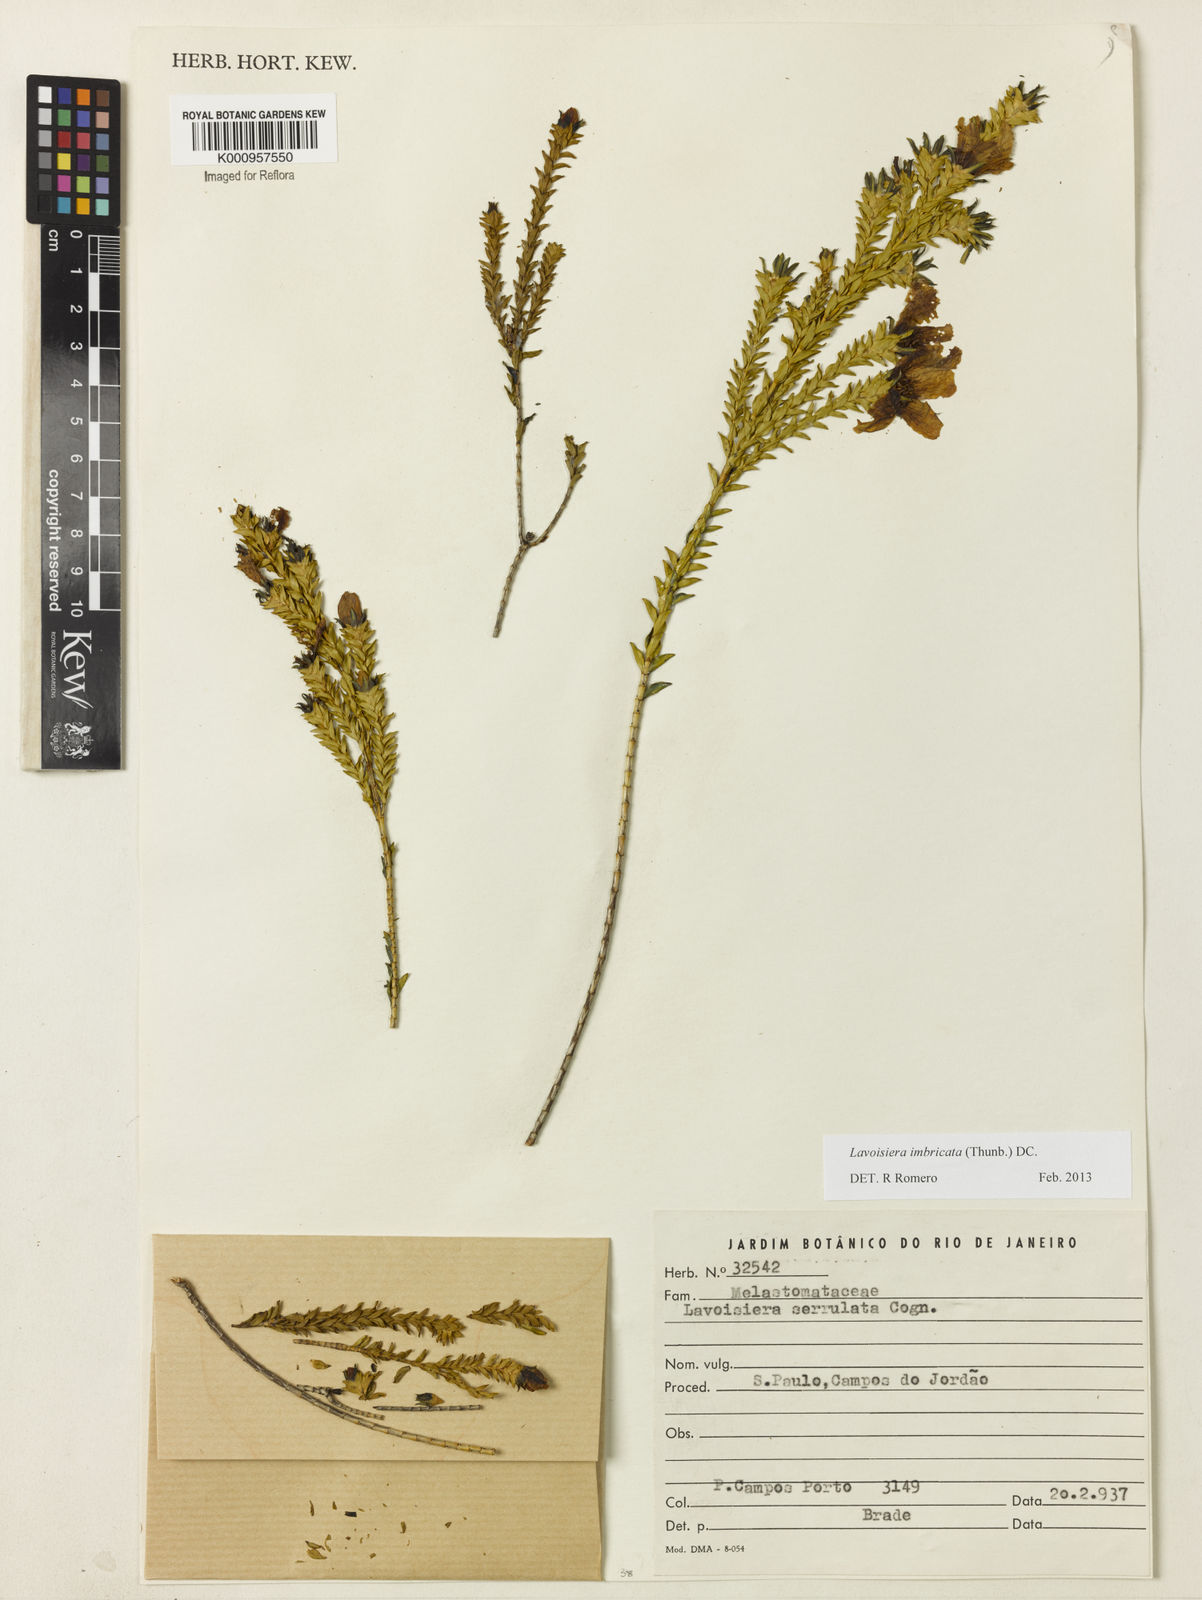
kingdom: Plantae
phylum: Tracheophyta
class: Magnoliopsida
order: Myrtales
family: Melastomataceae
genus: Microlicia
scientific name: Microlicia cataphracta
